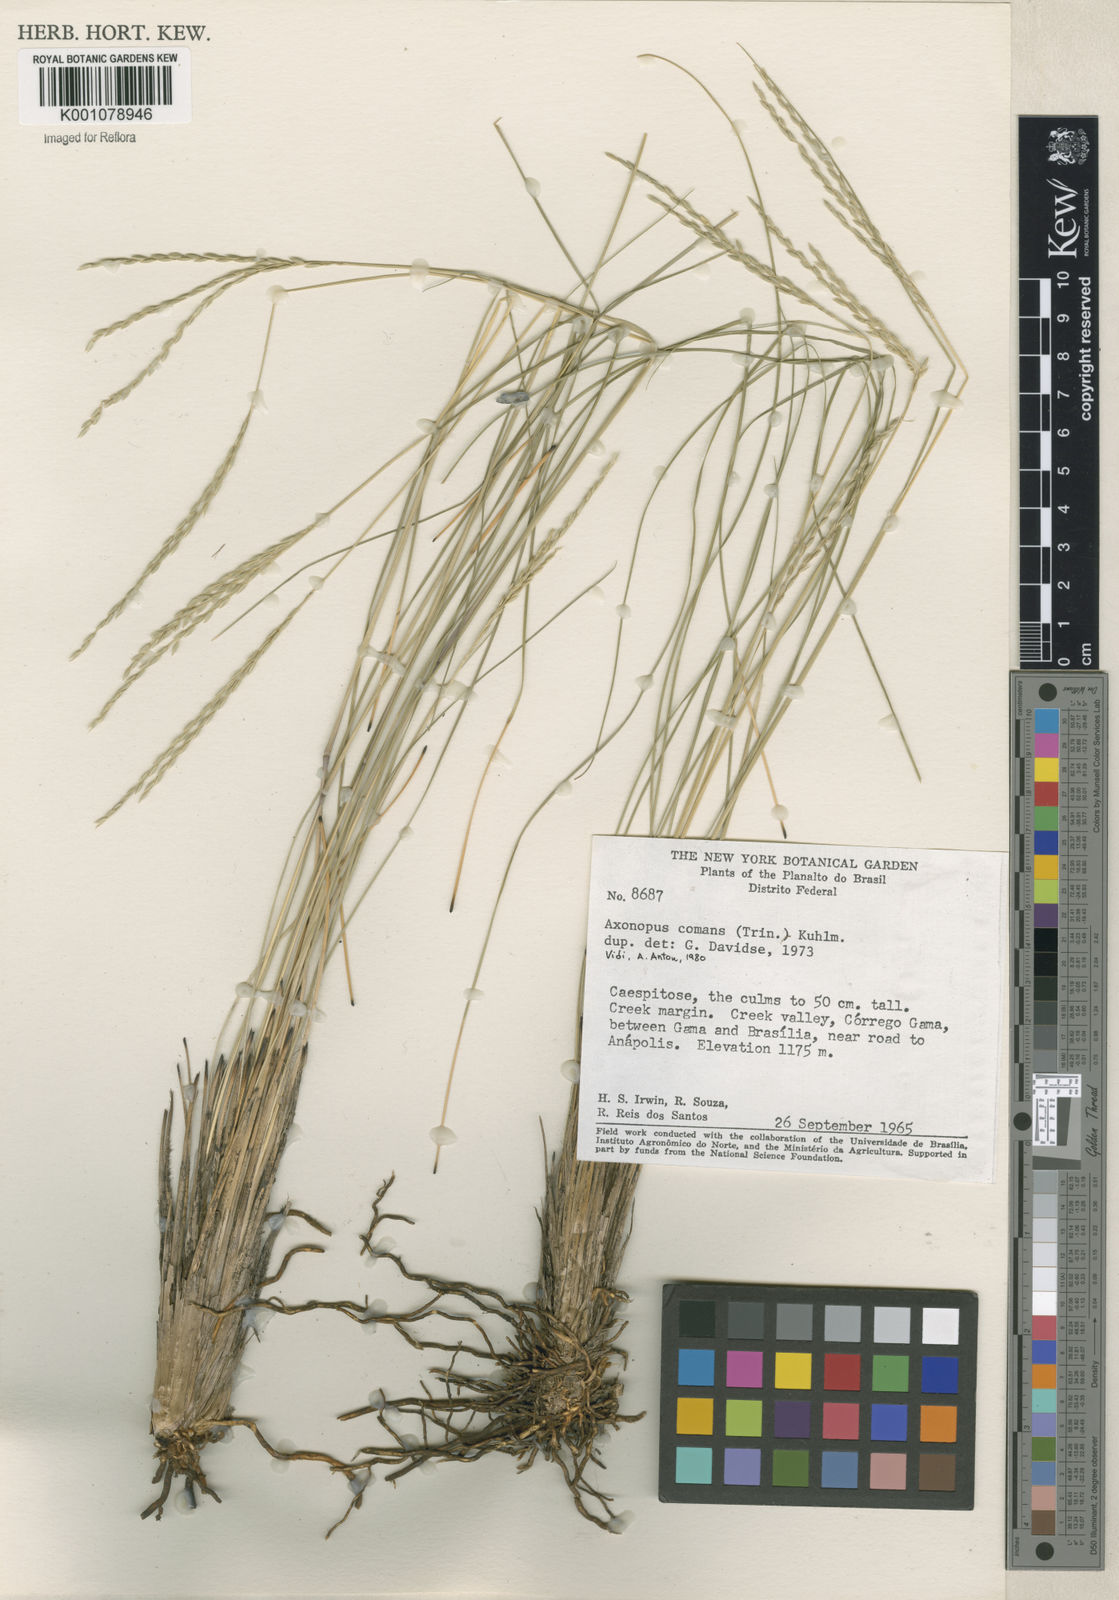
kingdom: Plantae
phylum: Tracheophyta
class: Liliopsida
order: Poales
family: Poaceae
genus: Axonopus
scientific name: Axonopus
